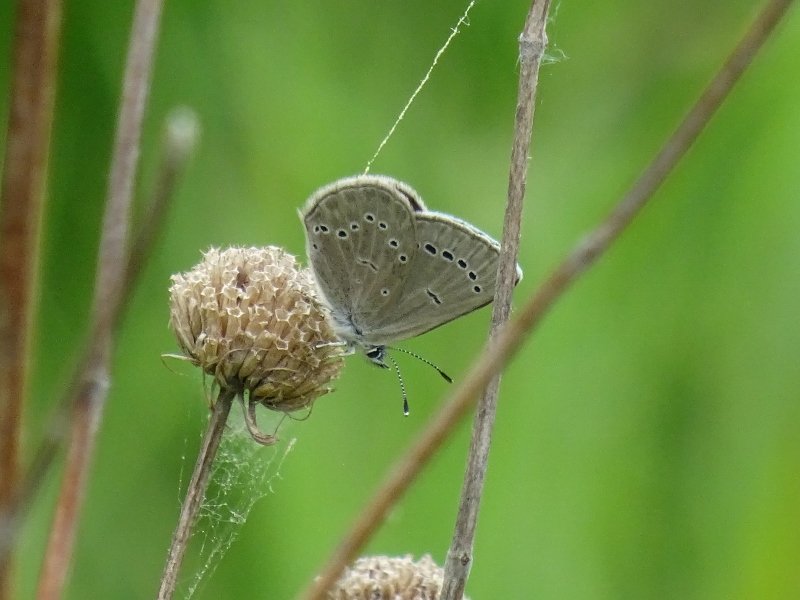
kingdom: Animalia
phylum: Arthropoda
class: Insecta
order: Lepidoptera
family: Lycaenidae
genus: Glaucopsyche
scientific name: Glaucopsyche lygdamus
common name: Silvery Blue
